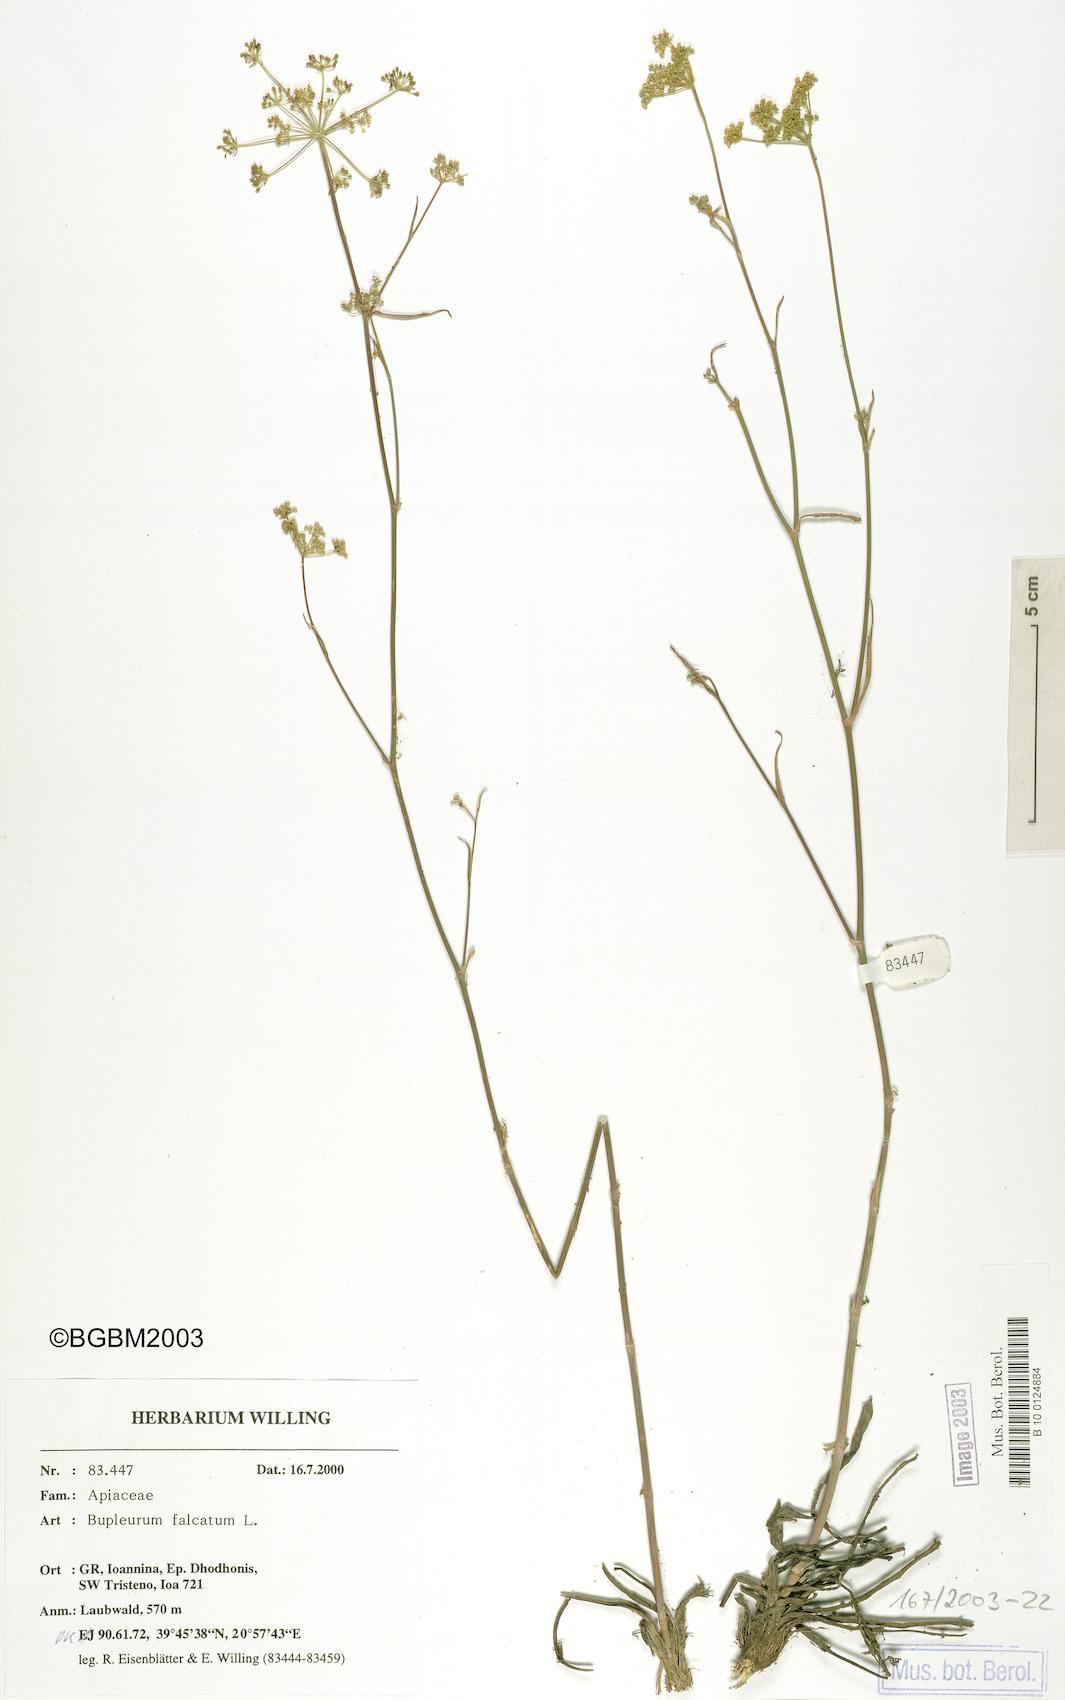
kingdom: Plantae
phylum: Tracheophyta
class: Magnoliopsida
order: Apiales
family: Apiaceae
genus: Bupleurum
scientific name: Bupleurum falcatum
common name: Sickle-leaved hare's-ear
